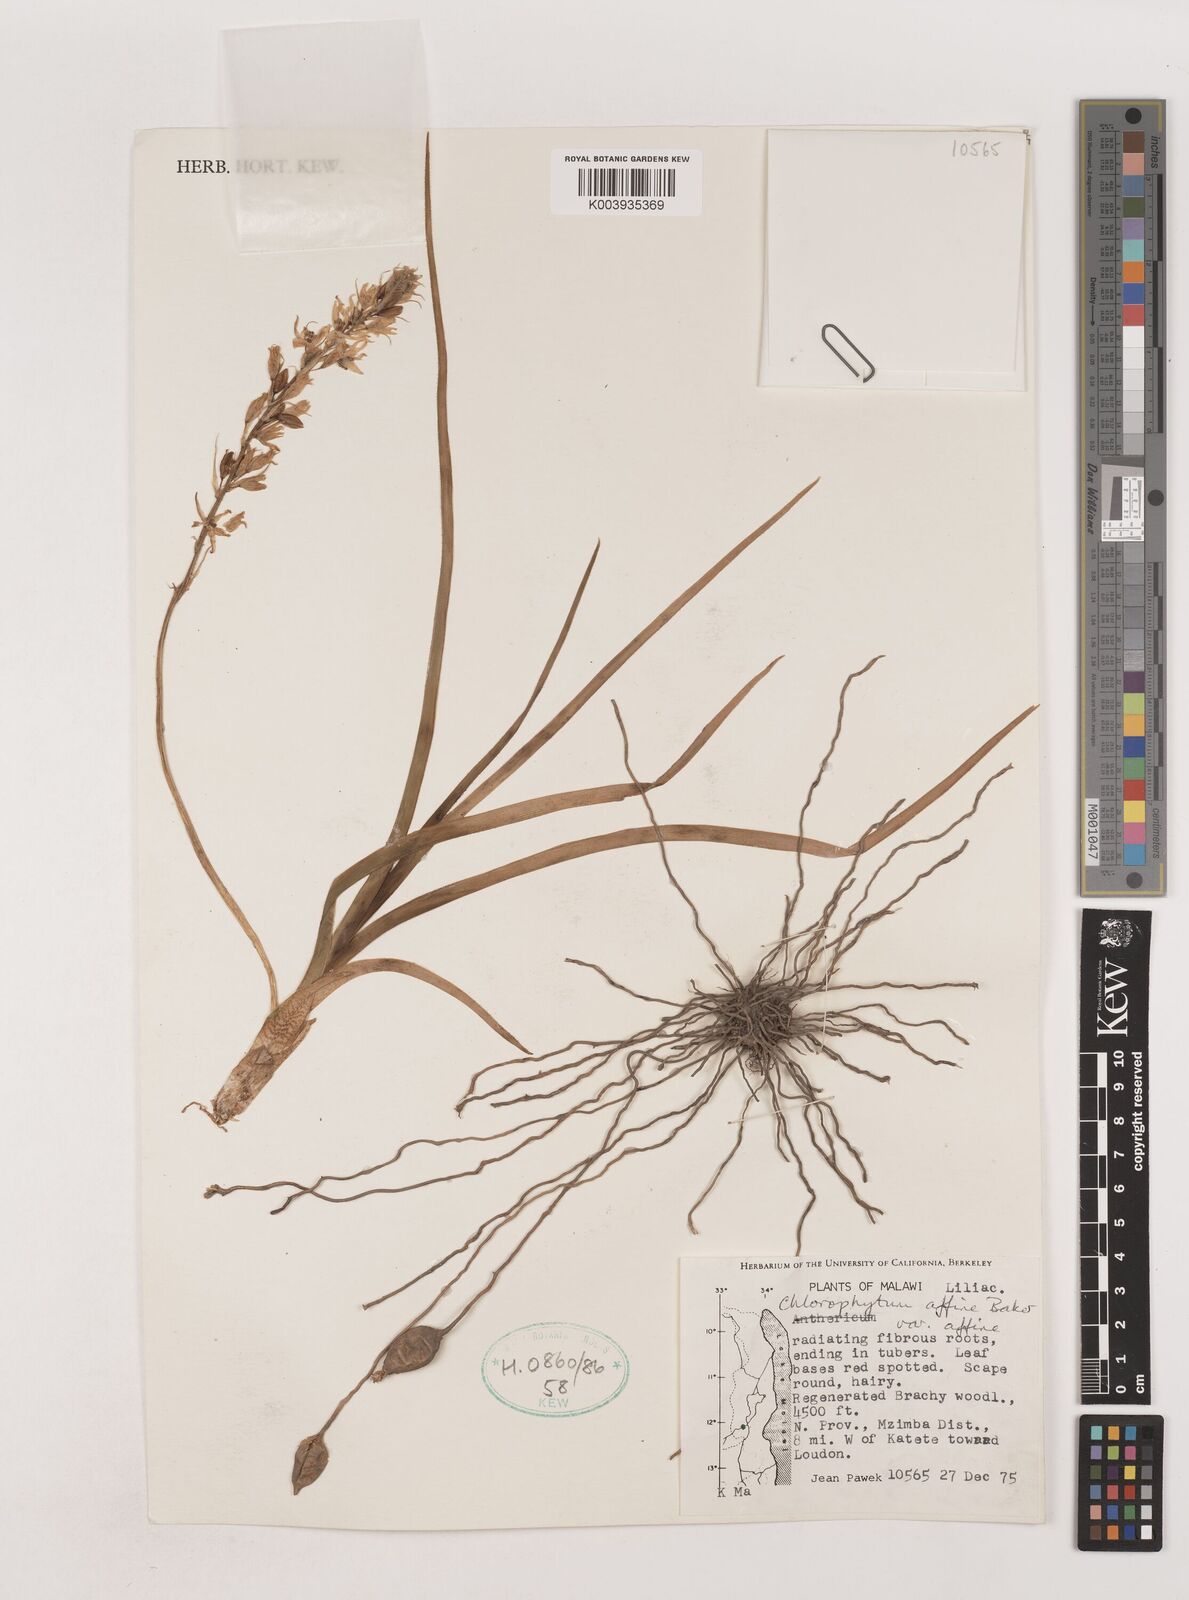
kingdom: Plantae
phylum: Tracheophyta
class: Liliopsida
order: Asparagales
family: Asparagaceae
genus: Chlorophytum
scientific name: Chlorophytum affine
